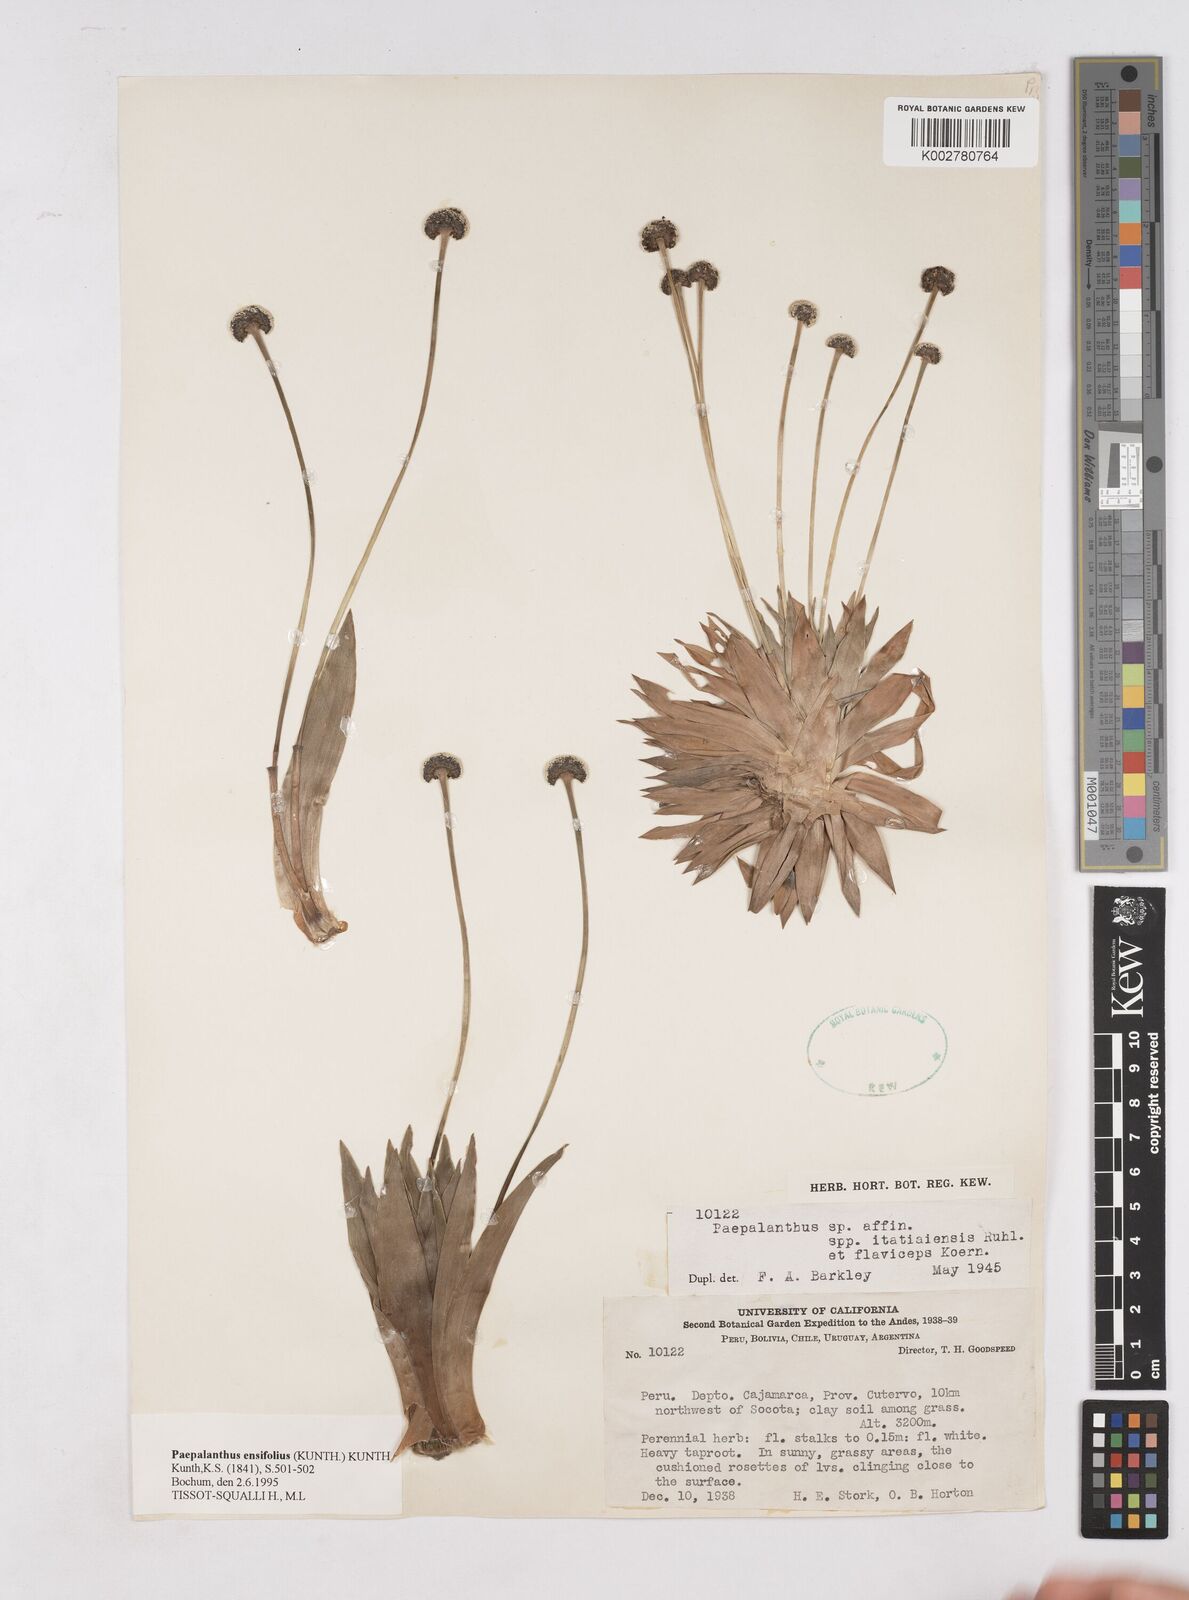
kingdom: Plantae
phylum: Tracheophyta
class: Liliopsida
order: Poales
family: Eriocaulaceae
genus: Paepalanthus
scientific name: Paepalanthus ensifolius
